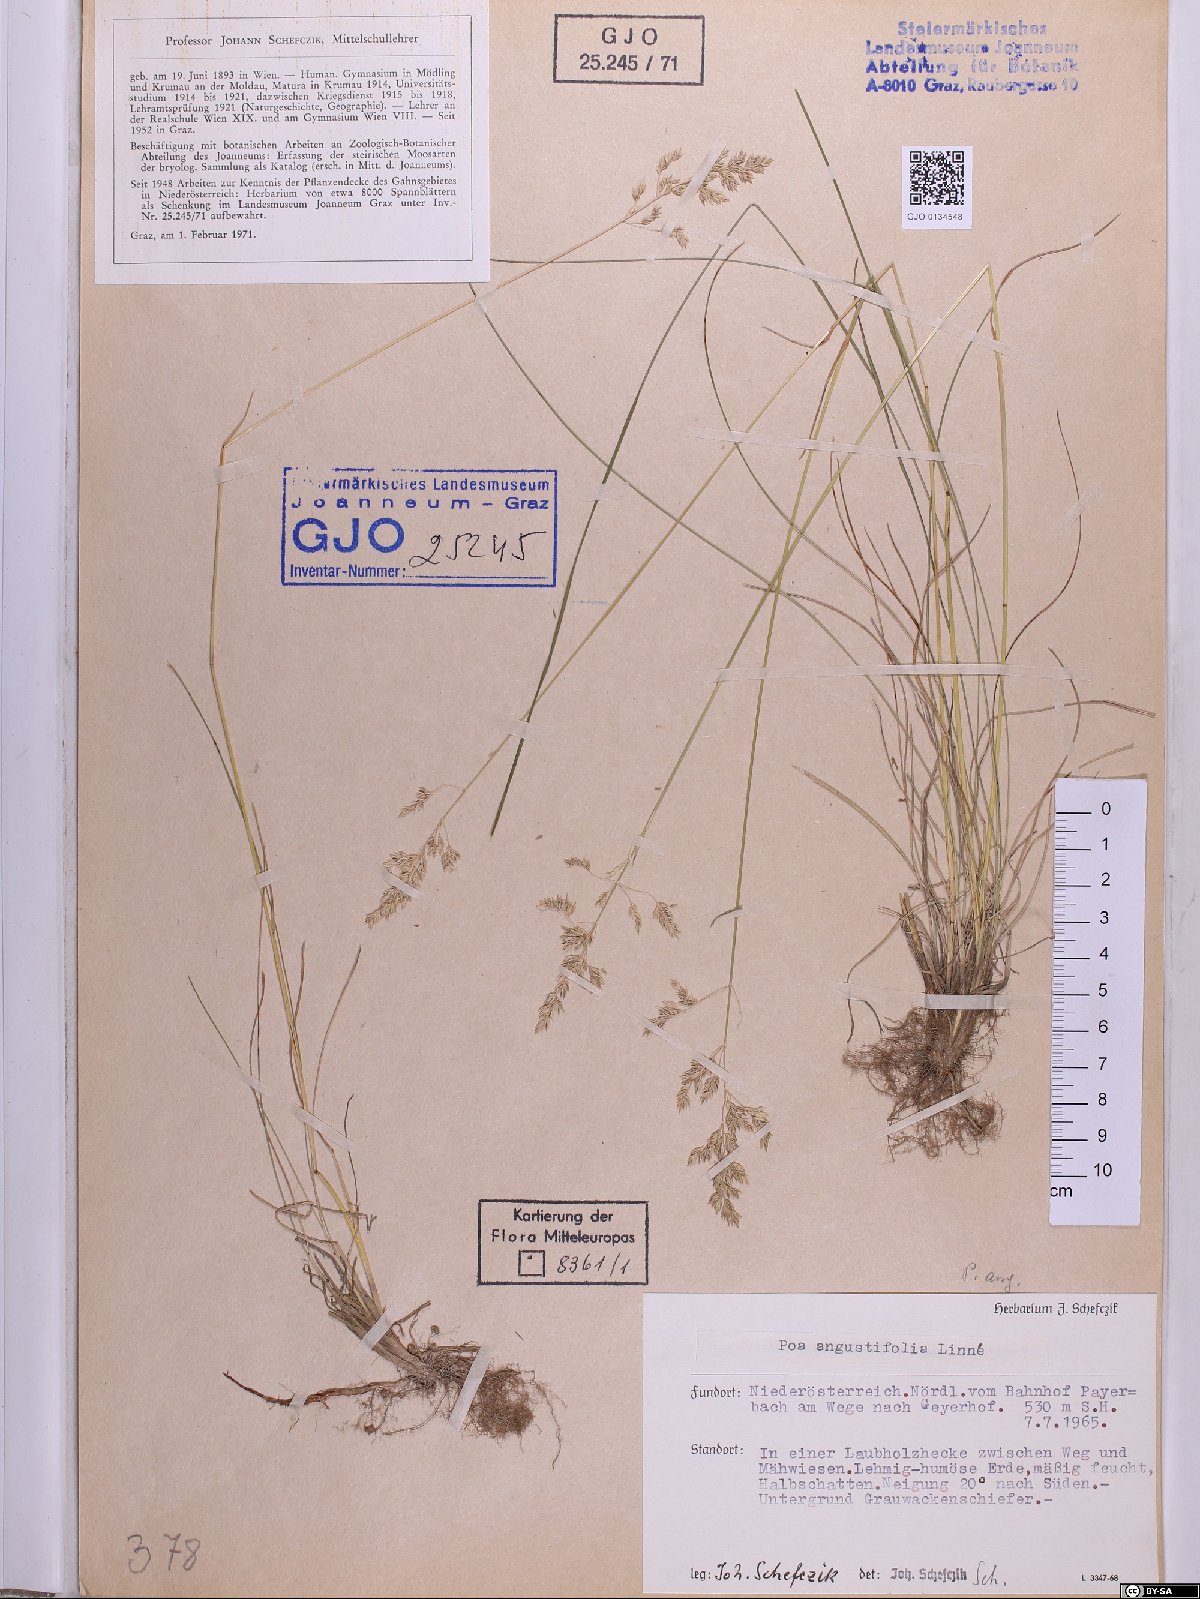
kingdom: Plantae
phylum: Tracheophyta
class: Liliopsida
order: Poales
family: Poaceae
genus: Poa
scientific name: Poa angustifolia
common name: Narrow-leaved meadow-grass
